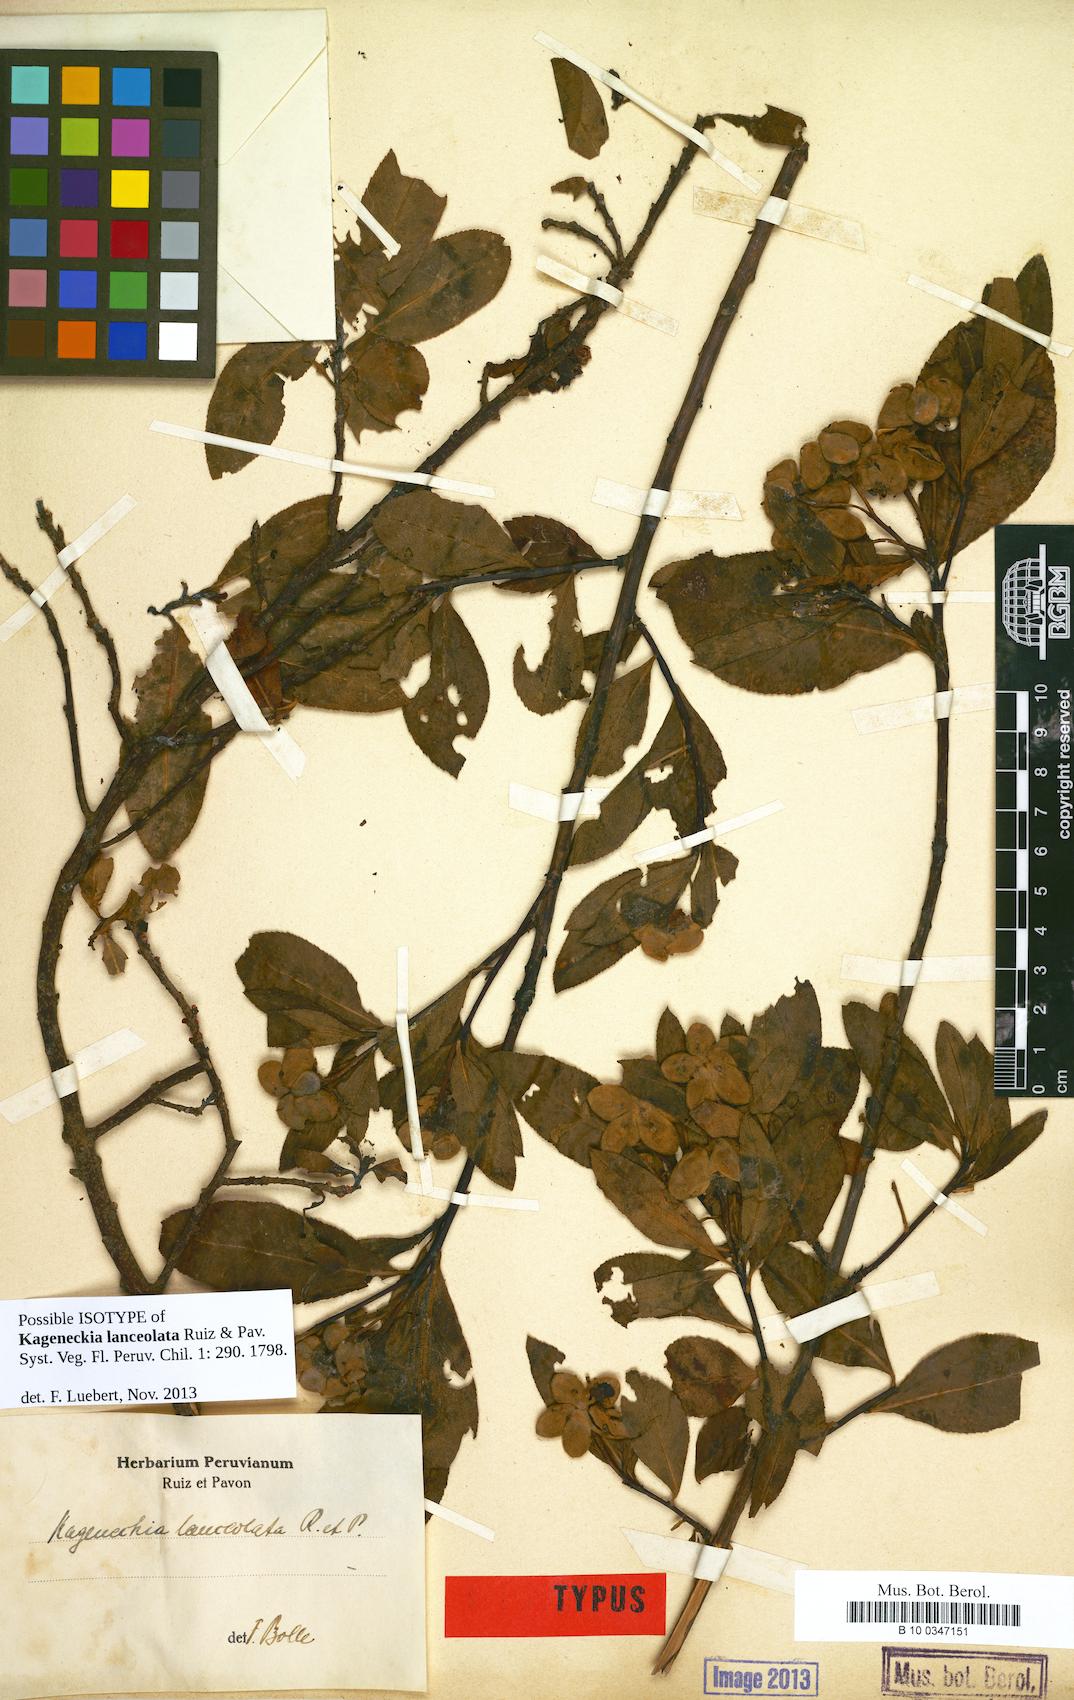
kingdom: Plantae
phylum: Tracheophyta
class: Magnoliopsida
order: Rosales
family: Rosaceae
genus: Kageneckia
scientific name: Kageneckia lanceolata
